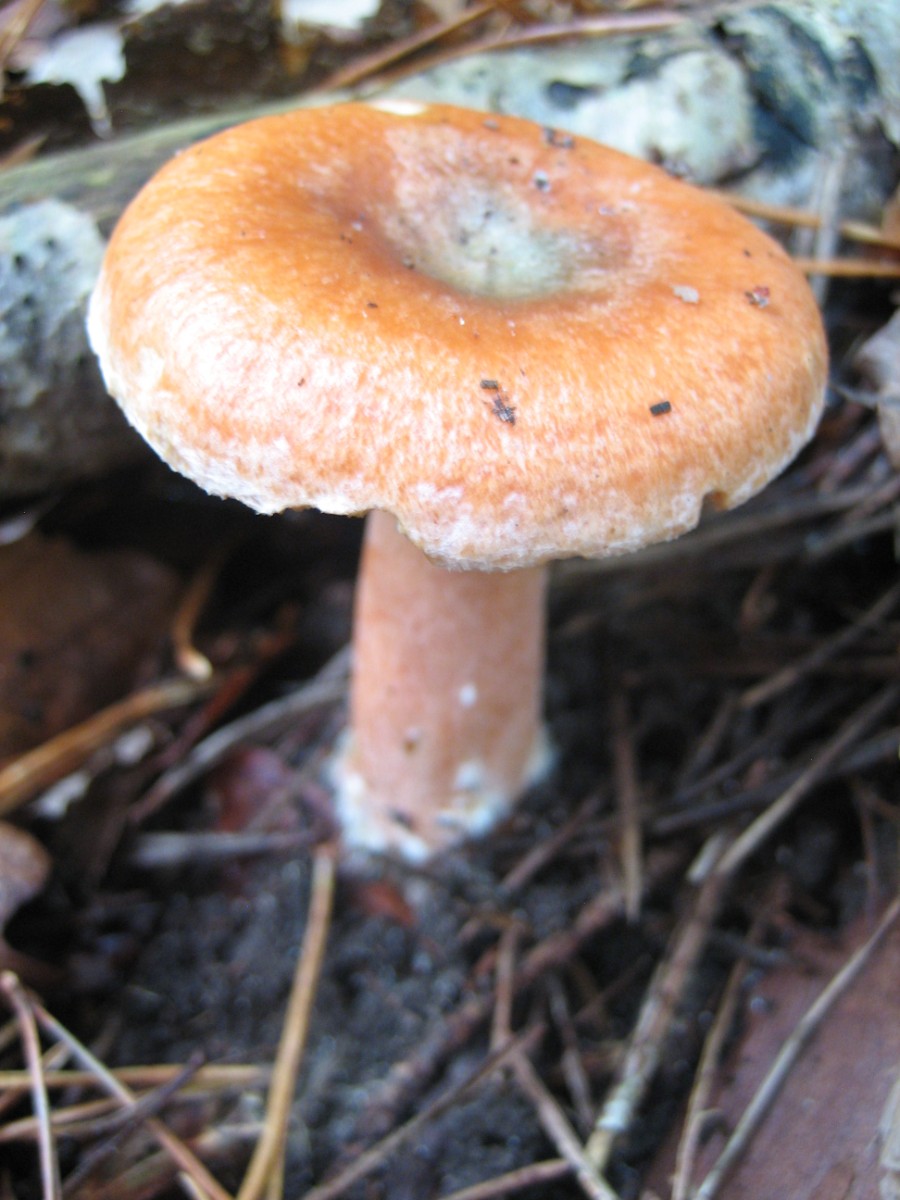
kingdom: Fungi
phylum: Basidiomycota
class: Agaricomycetes
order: Russulales
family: Russulaceae
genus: Lactarius
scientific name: Lactarius deliciosus
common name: velsmagende mælkehat
